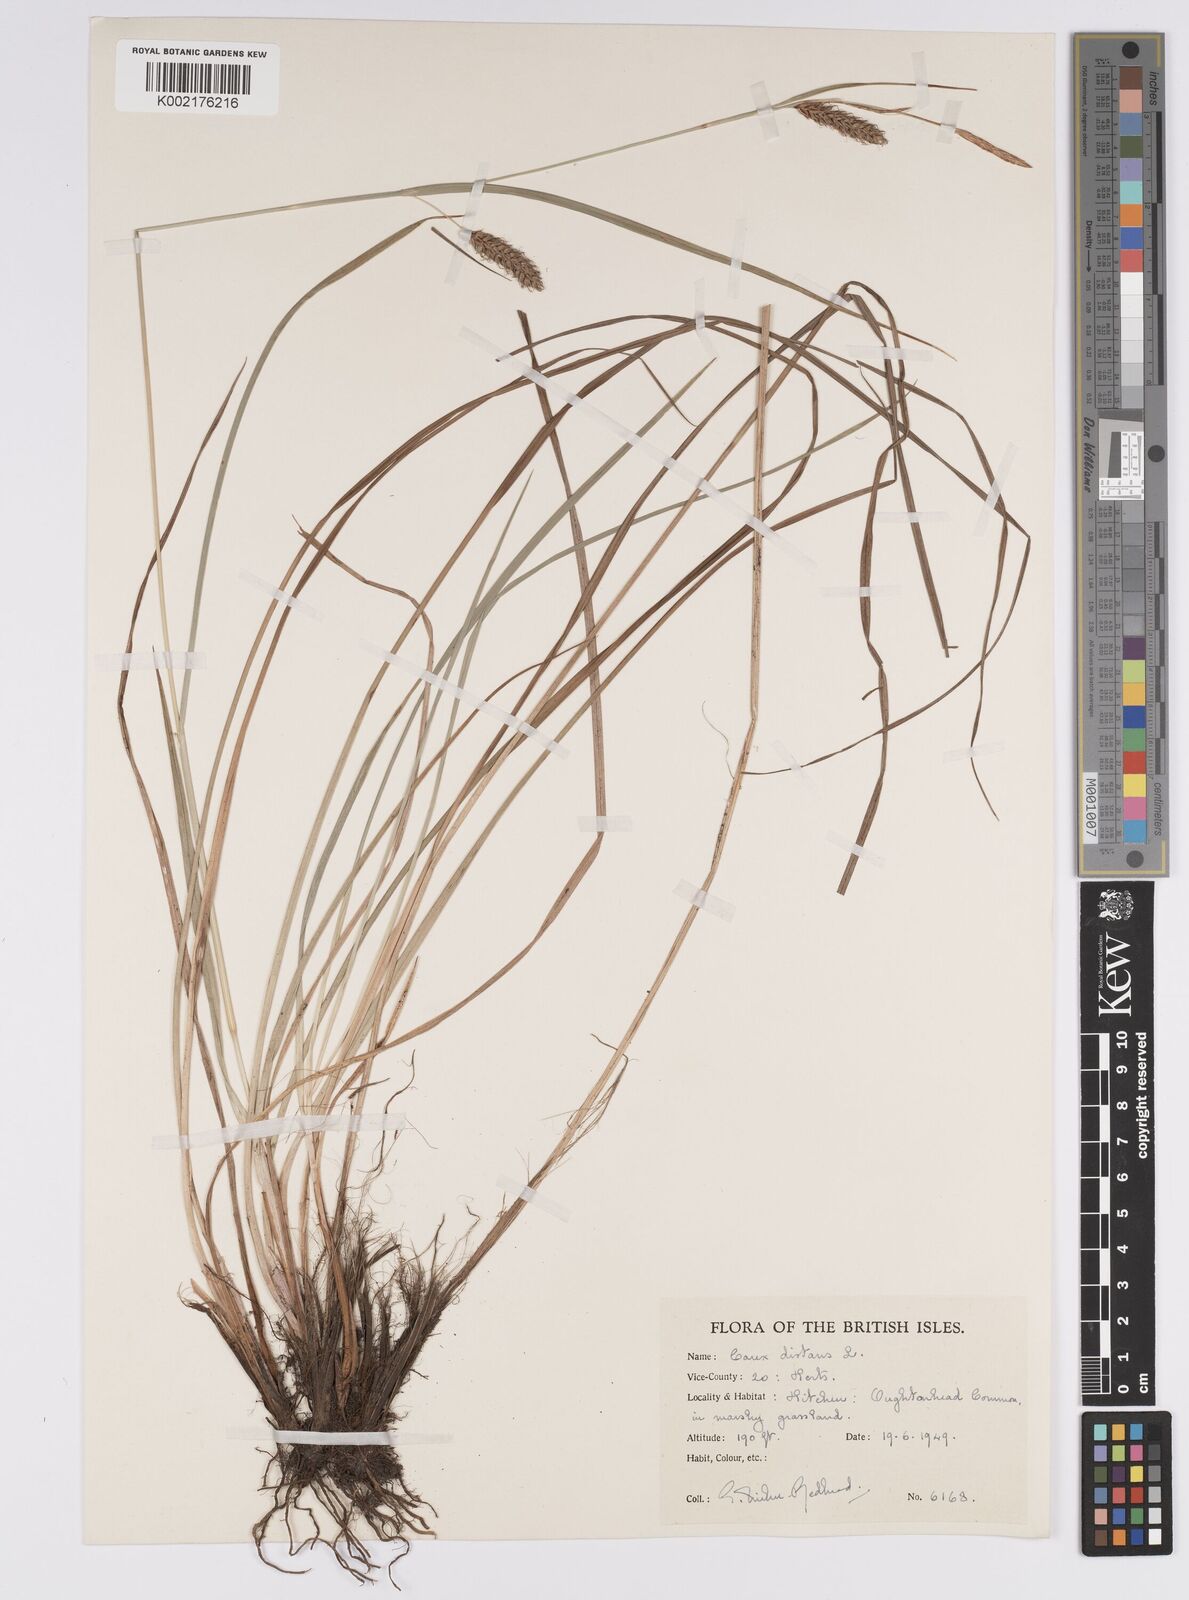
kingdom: Plantae
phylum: Tracheophyta
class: Liliopsida
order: Poales
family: Cyperaceae
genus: Carex
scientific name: Carex distans
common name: Distant sedge
